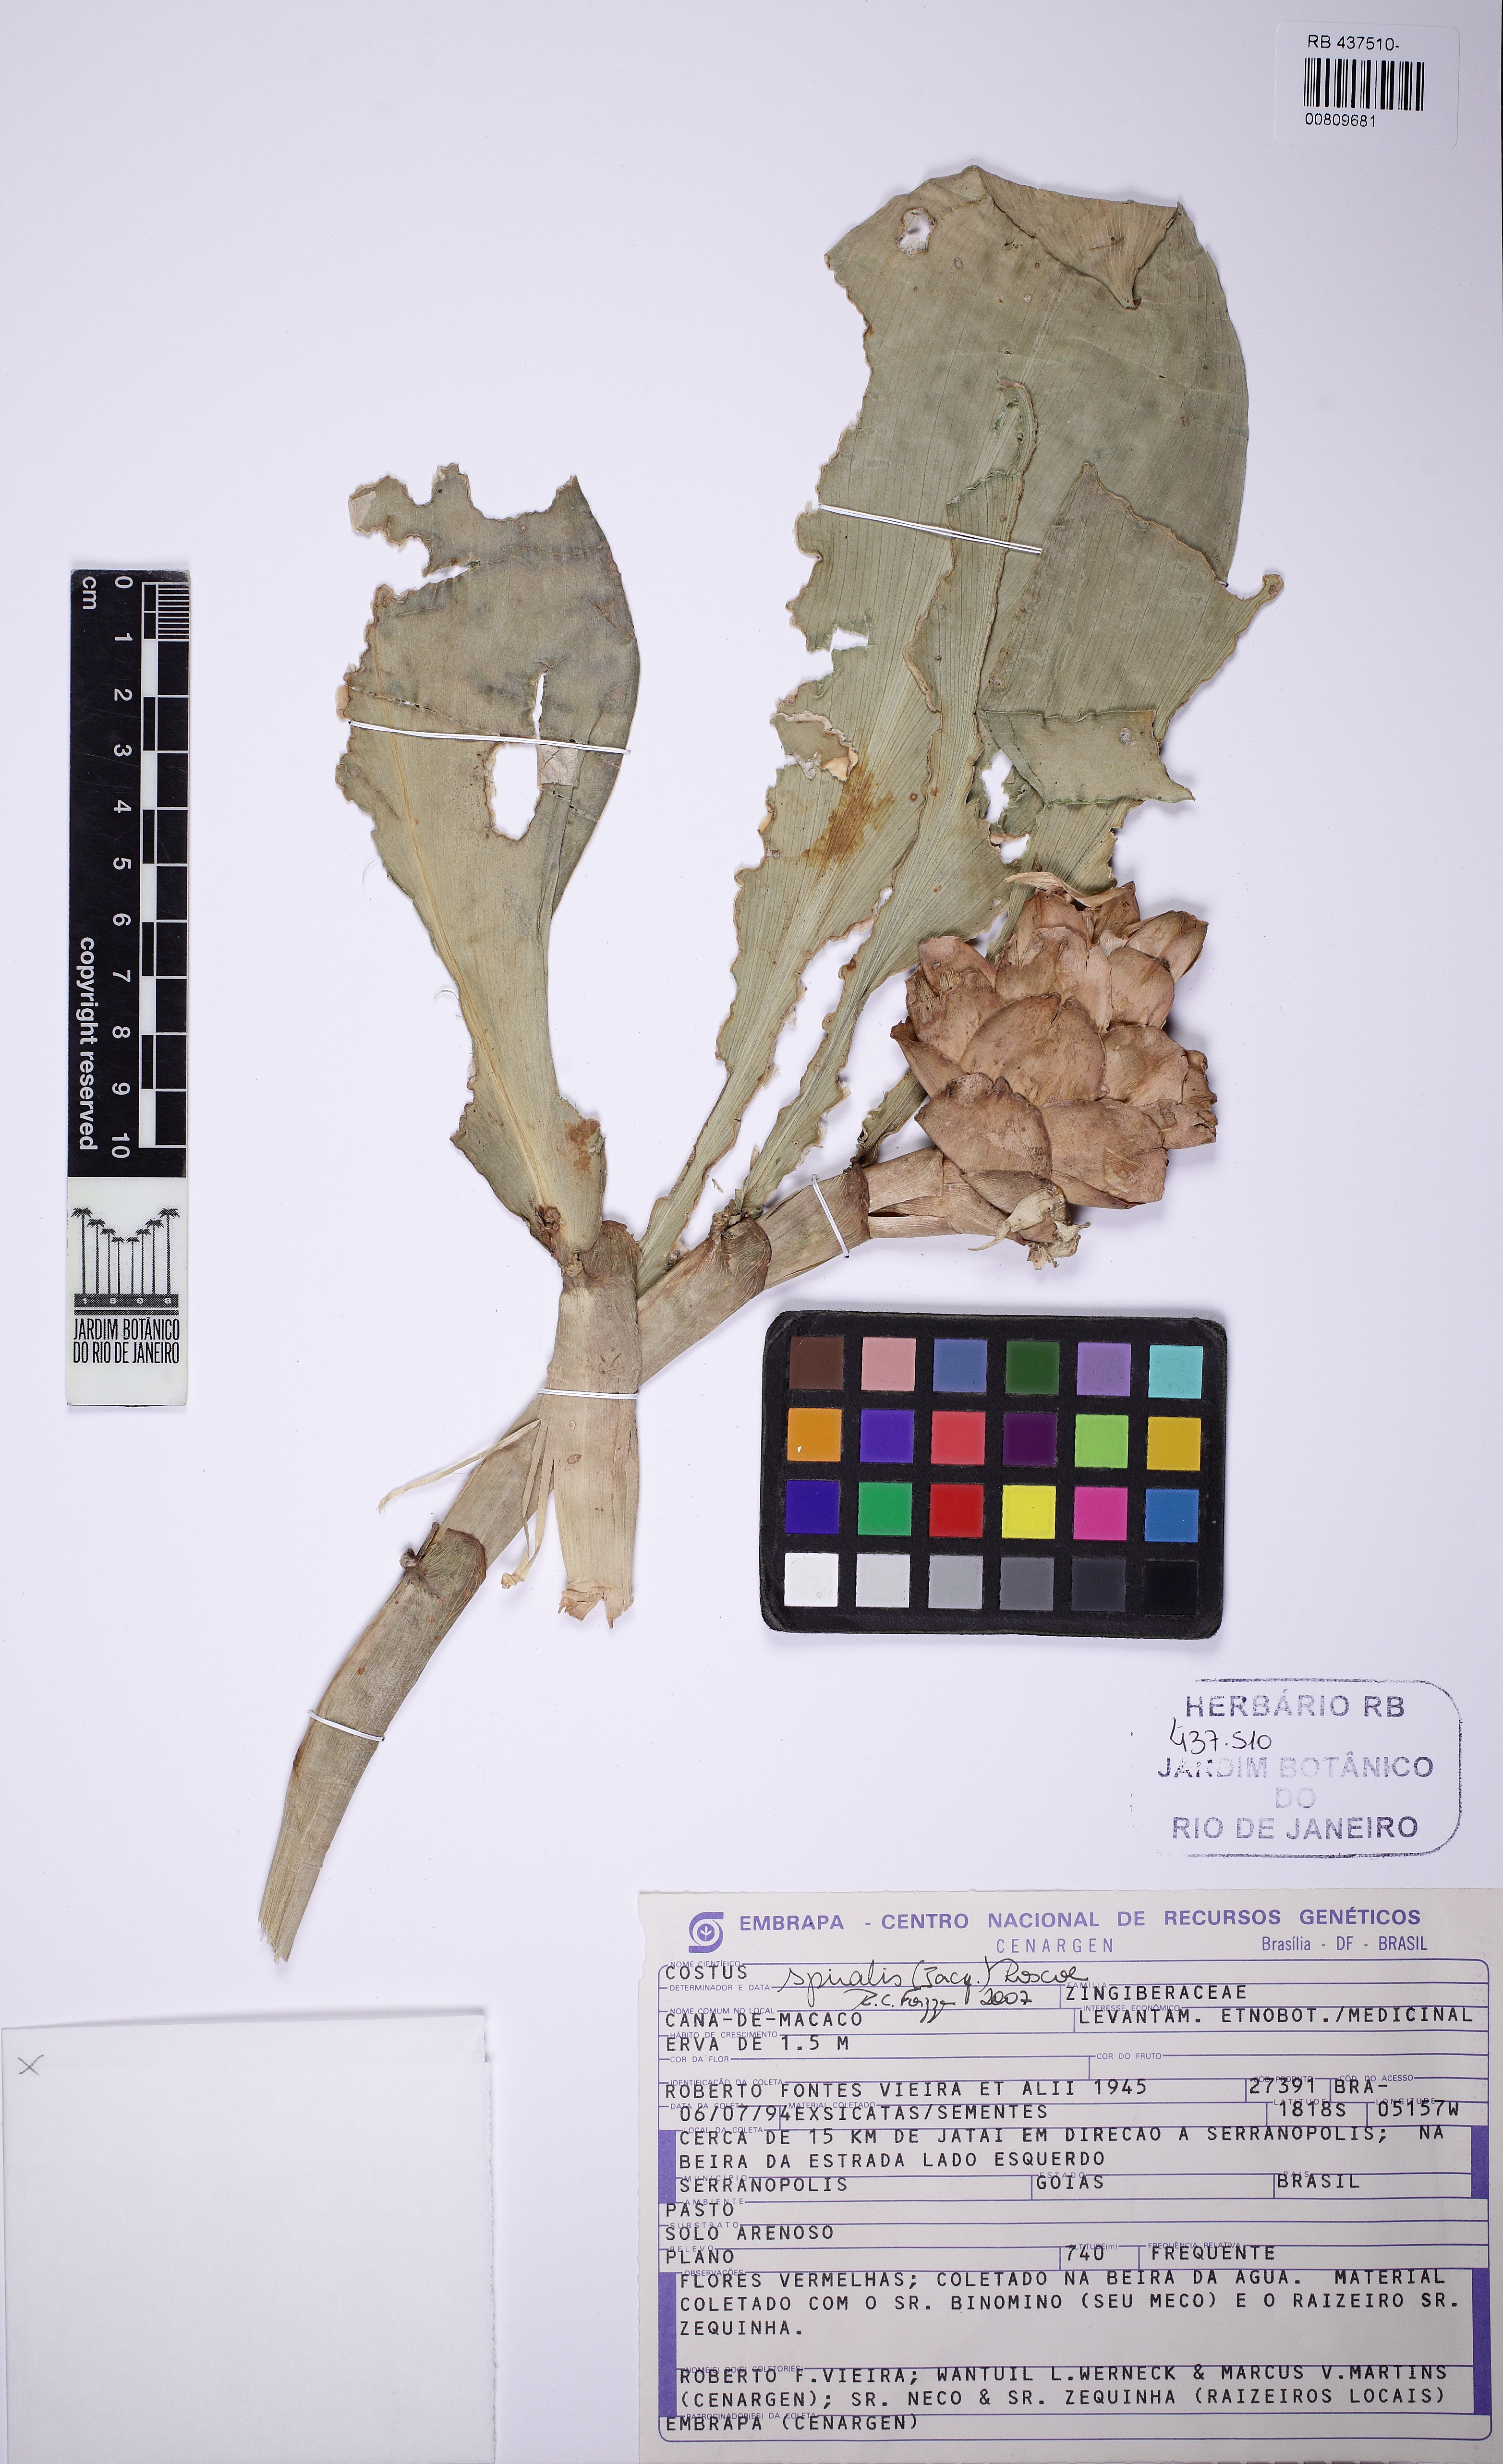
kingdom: Plantae
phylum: Tracheophyta
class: Liliopsida
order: Zingiberales
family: Costaceae
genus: Costus
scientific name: Costus spiralis
